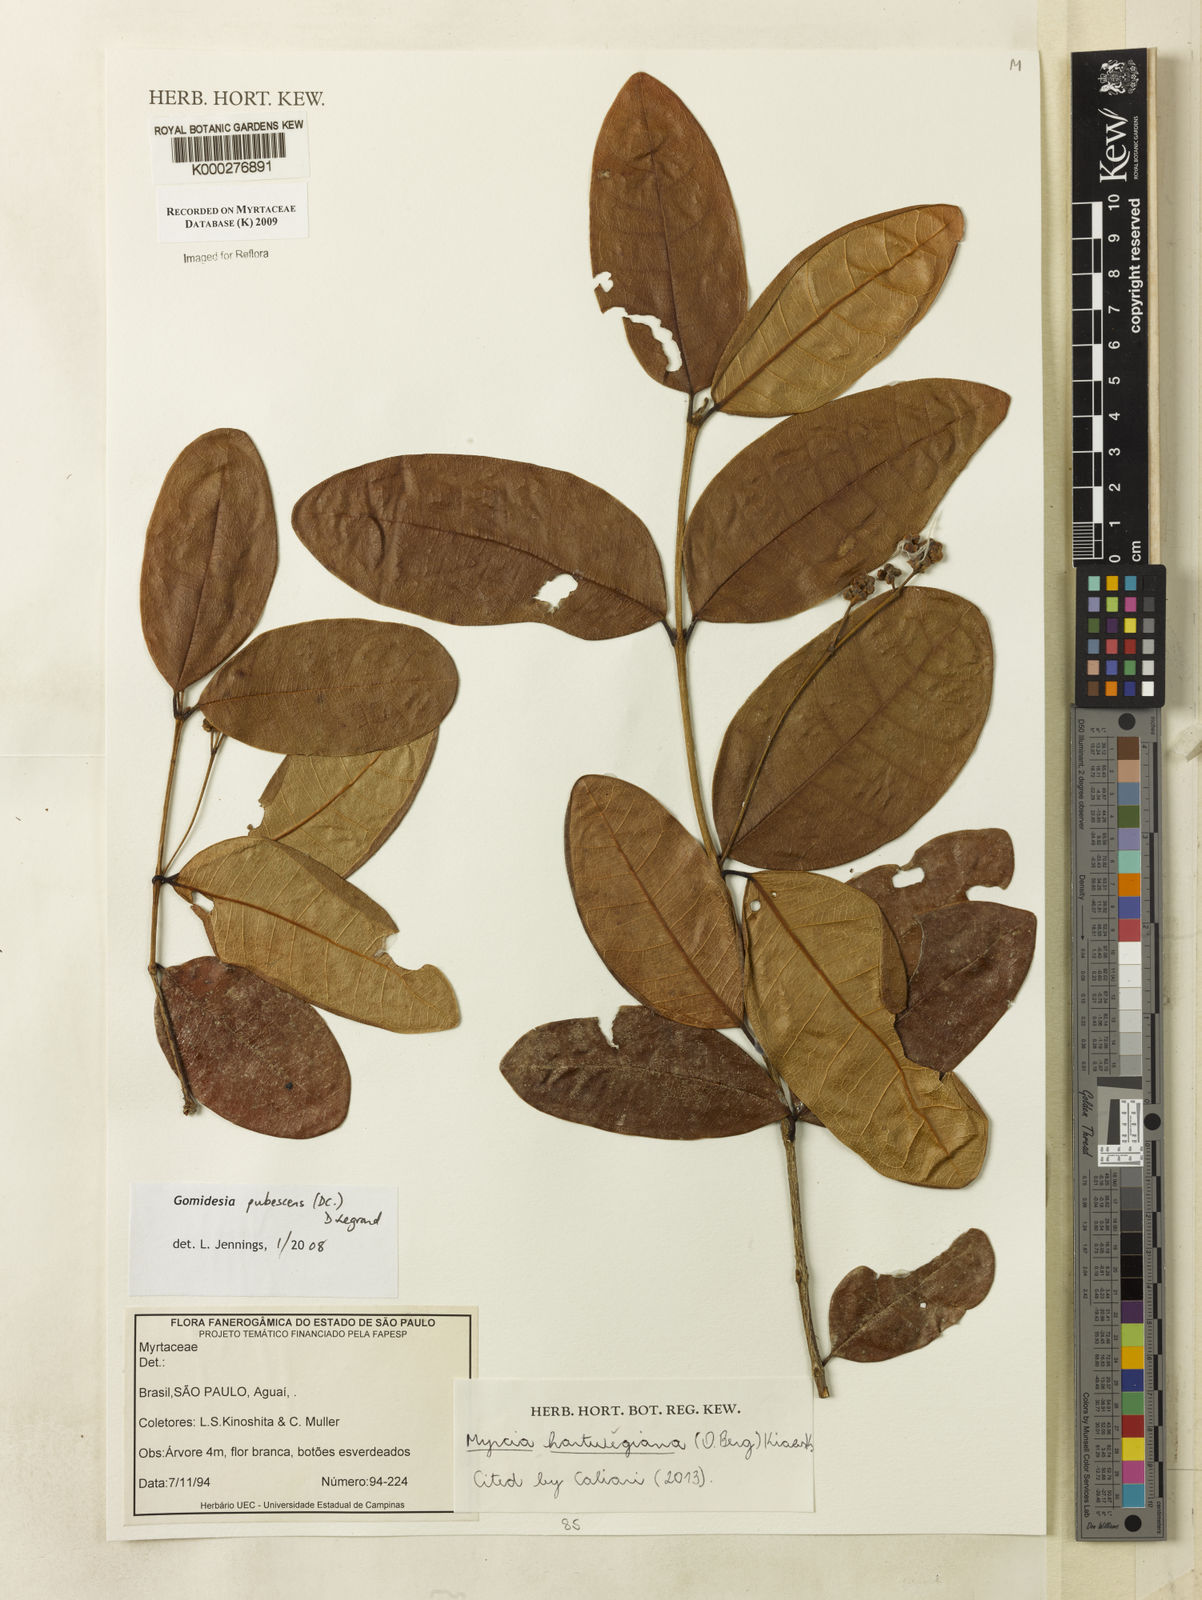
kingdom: Plantae
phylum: Tracheophyta
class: Magnoliopsida
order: Myrtales
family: Myrtaceae
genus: Myrcia
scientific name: Myrcia pubescens
